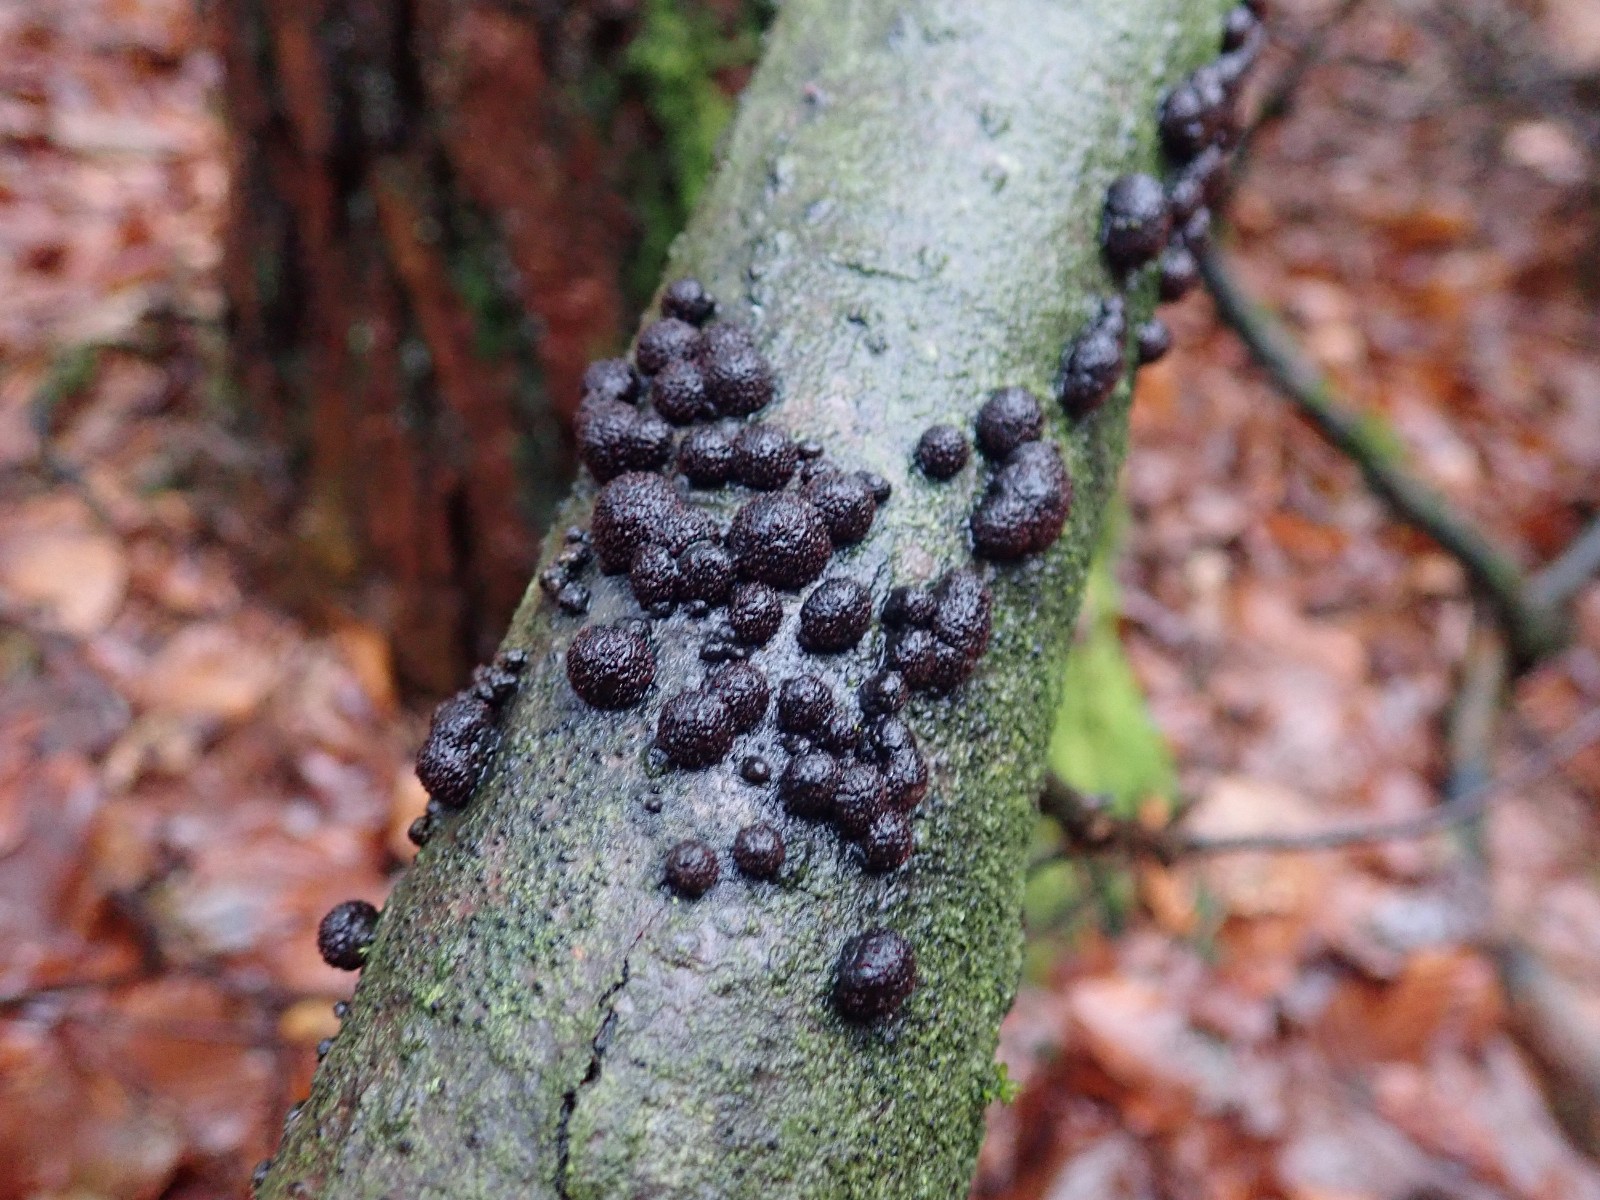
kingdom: Fungi
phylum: Ascomycota
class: Sordariomycetes
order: Xylariales
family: Hypoxylaceae
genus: Hypoxylon
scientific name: Hypoxylon fragiforme
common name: kuljordbær
